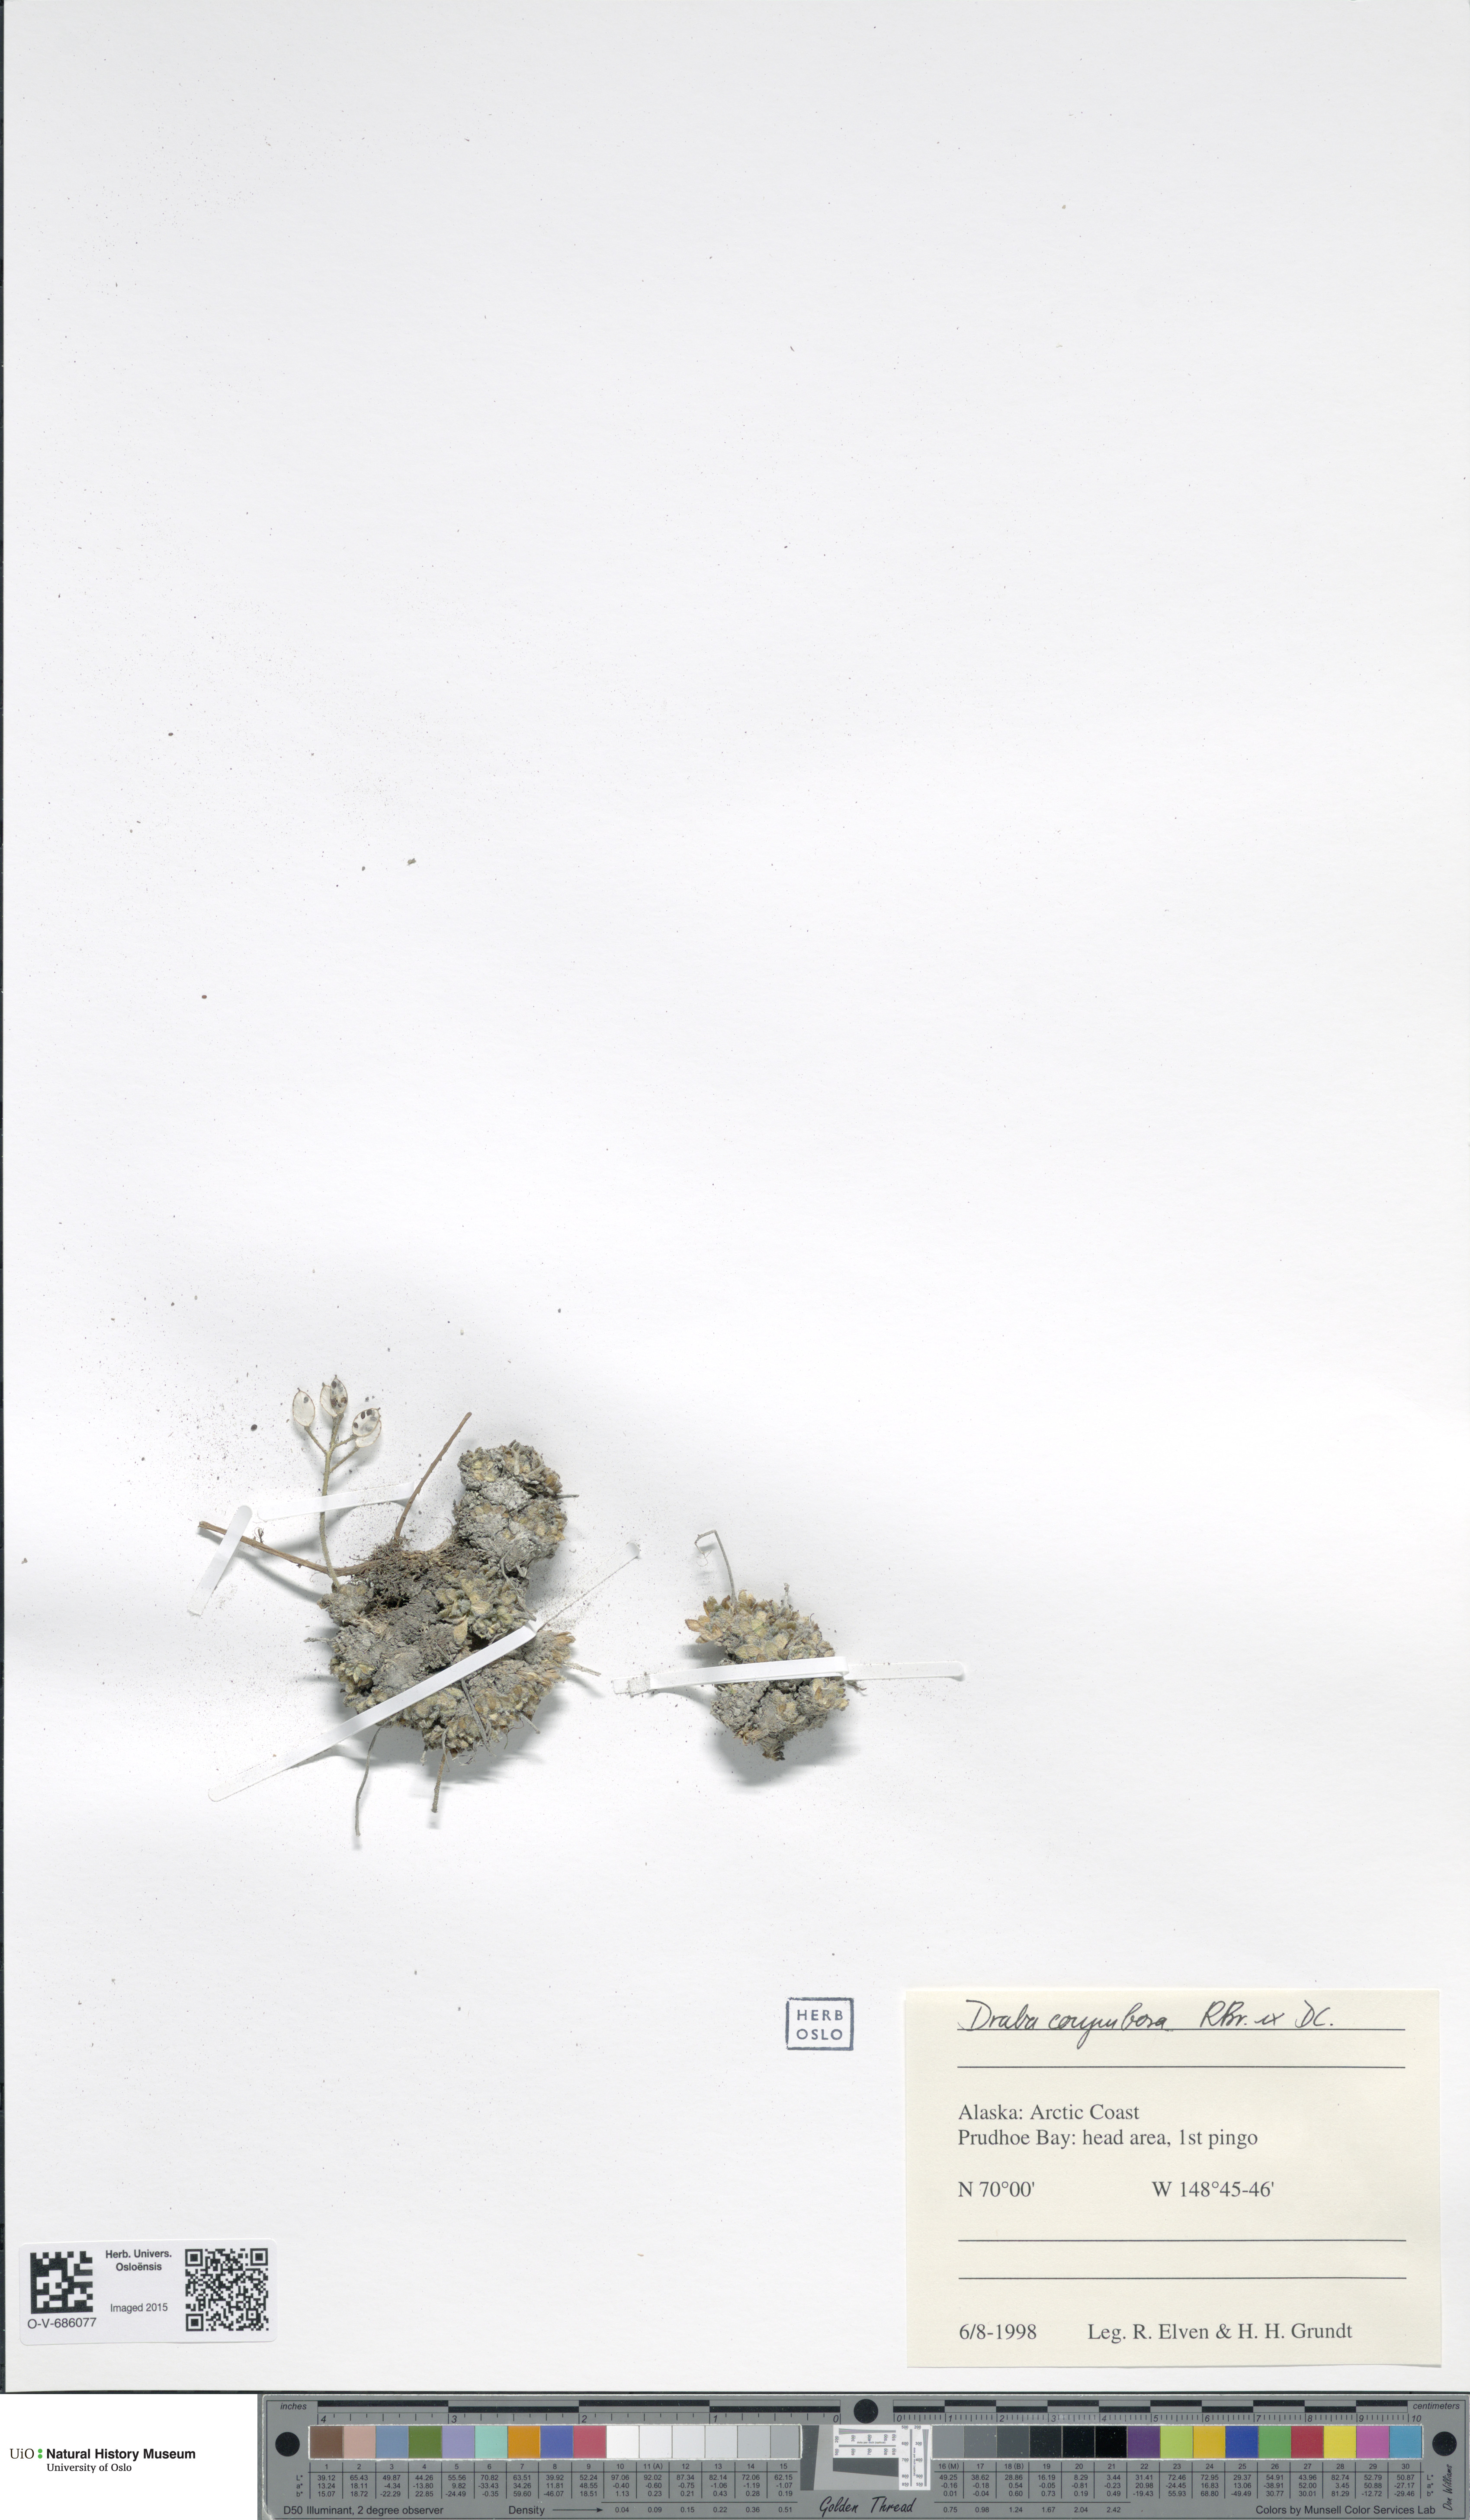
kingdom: Plantae
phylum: Tracheophyta
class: Magnoliopsida
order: Brassicales
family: Brassicaceae
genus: Draba
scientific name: Draba corymbosa
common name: Cushion whitlow-grass
